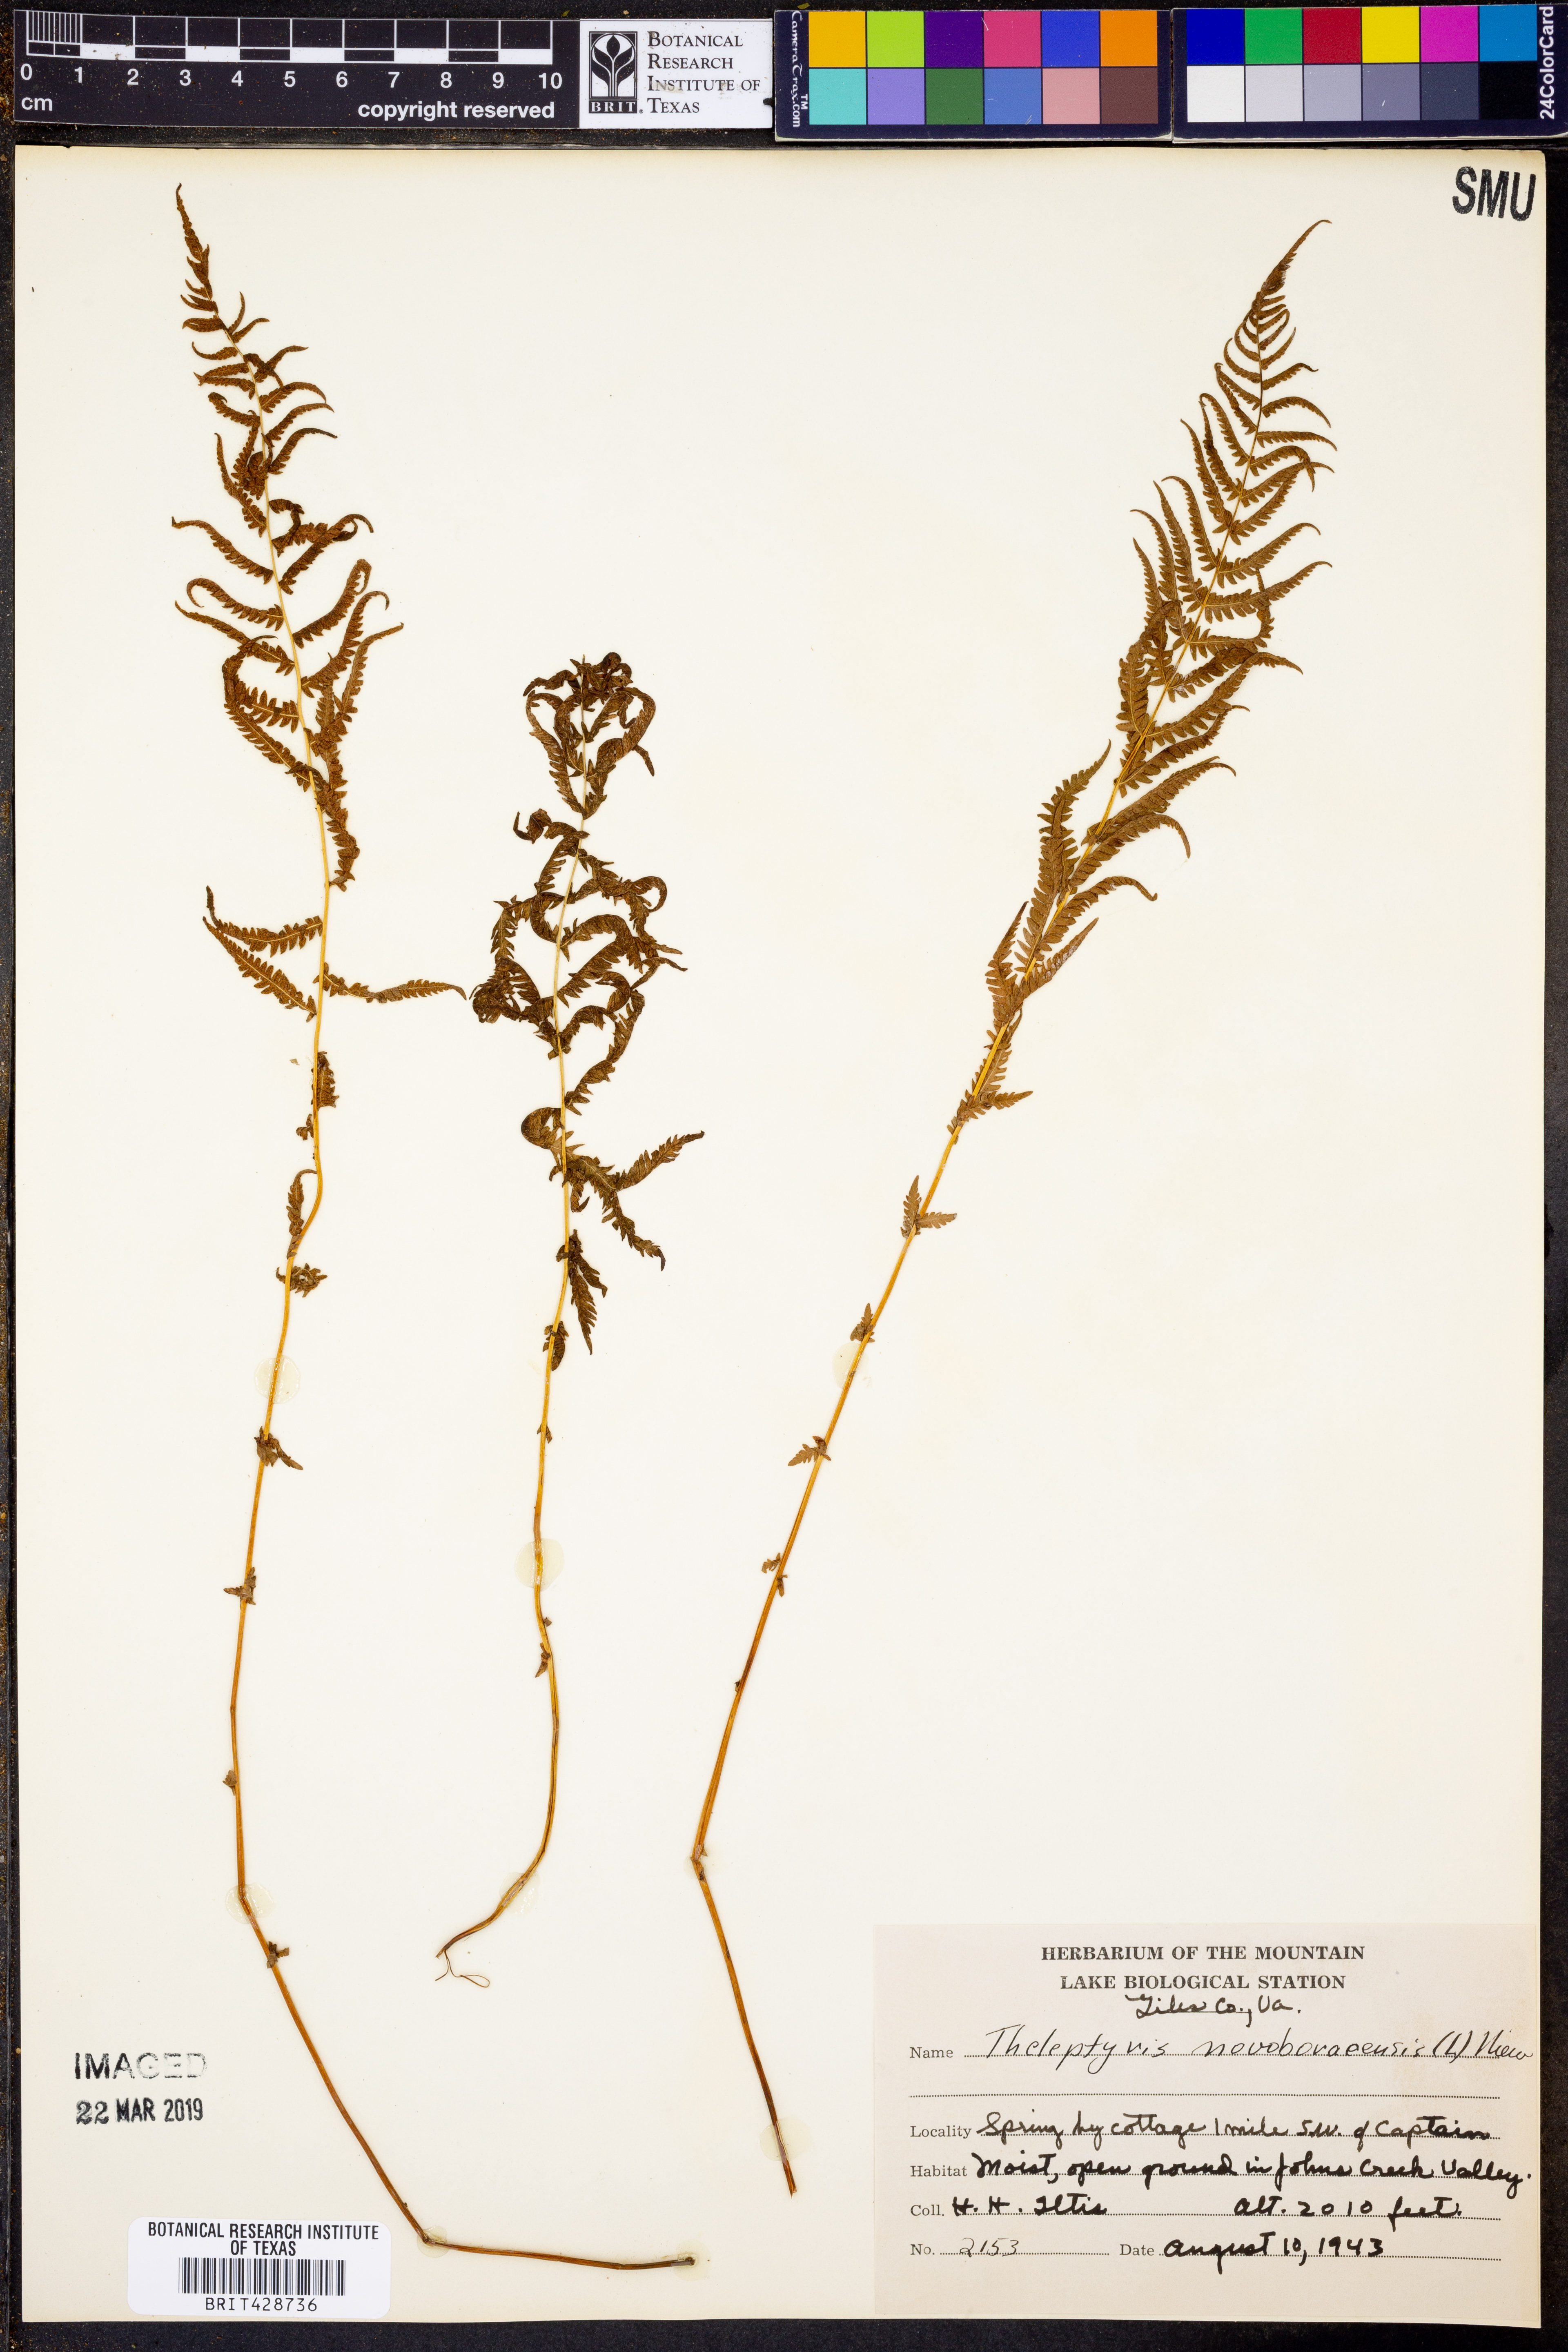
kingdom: Plantae
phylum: Tracheophyta
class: Polypodiopsida
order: Polypodiales
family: Thelypteridaceae
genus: Amauropelta
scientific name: Amauropelta noveboracensis
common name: New york fern
